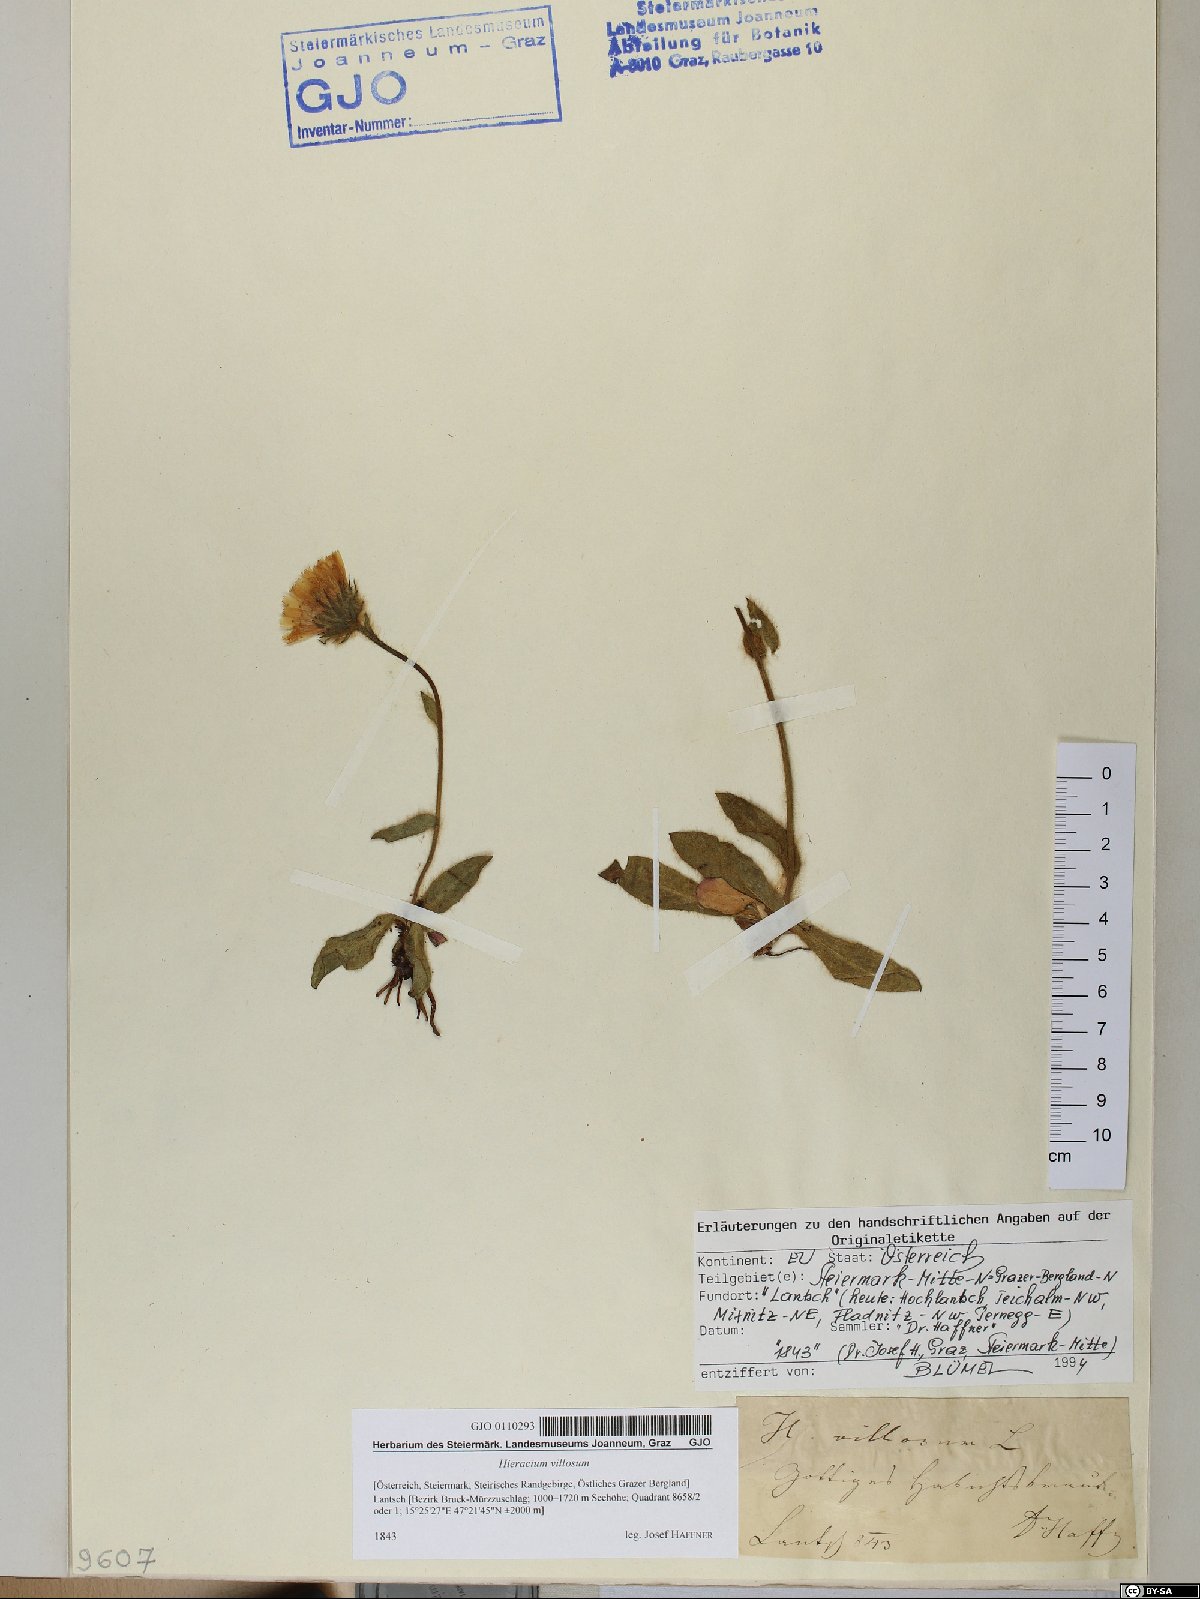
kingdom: Plantae
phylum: Tracheophyta
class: Magnoliopsida
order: Asterales
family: Asteraceae
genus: Hieracium
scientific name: Hieracium villosum
